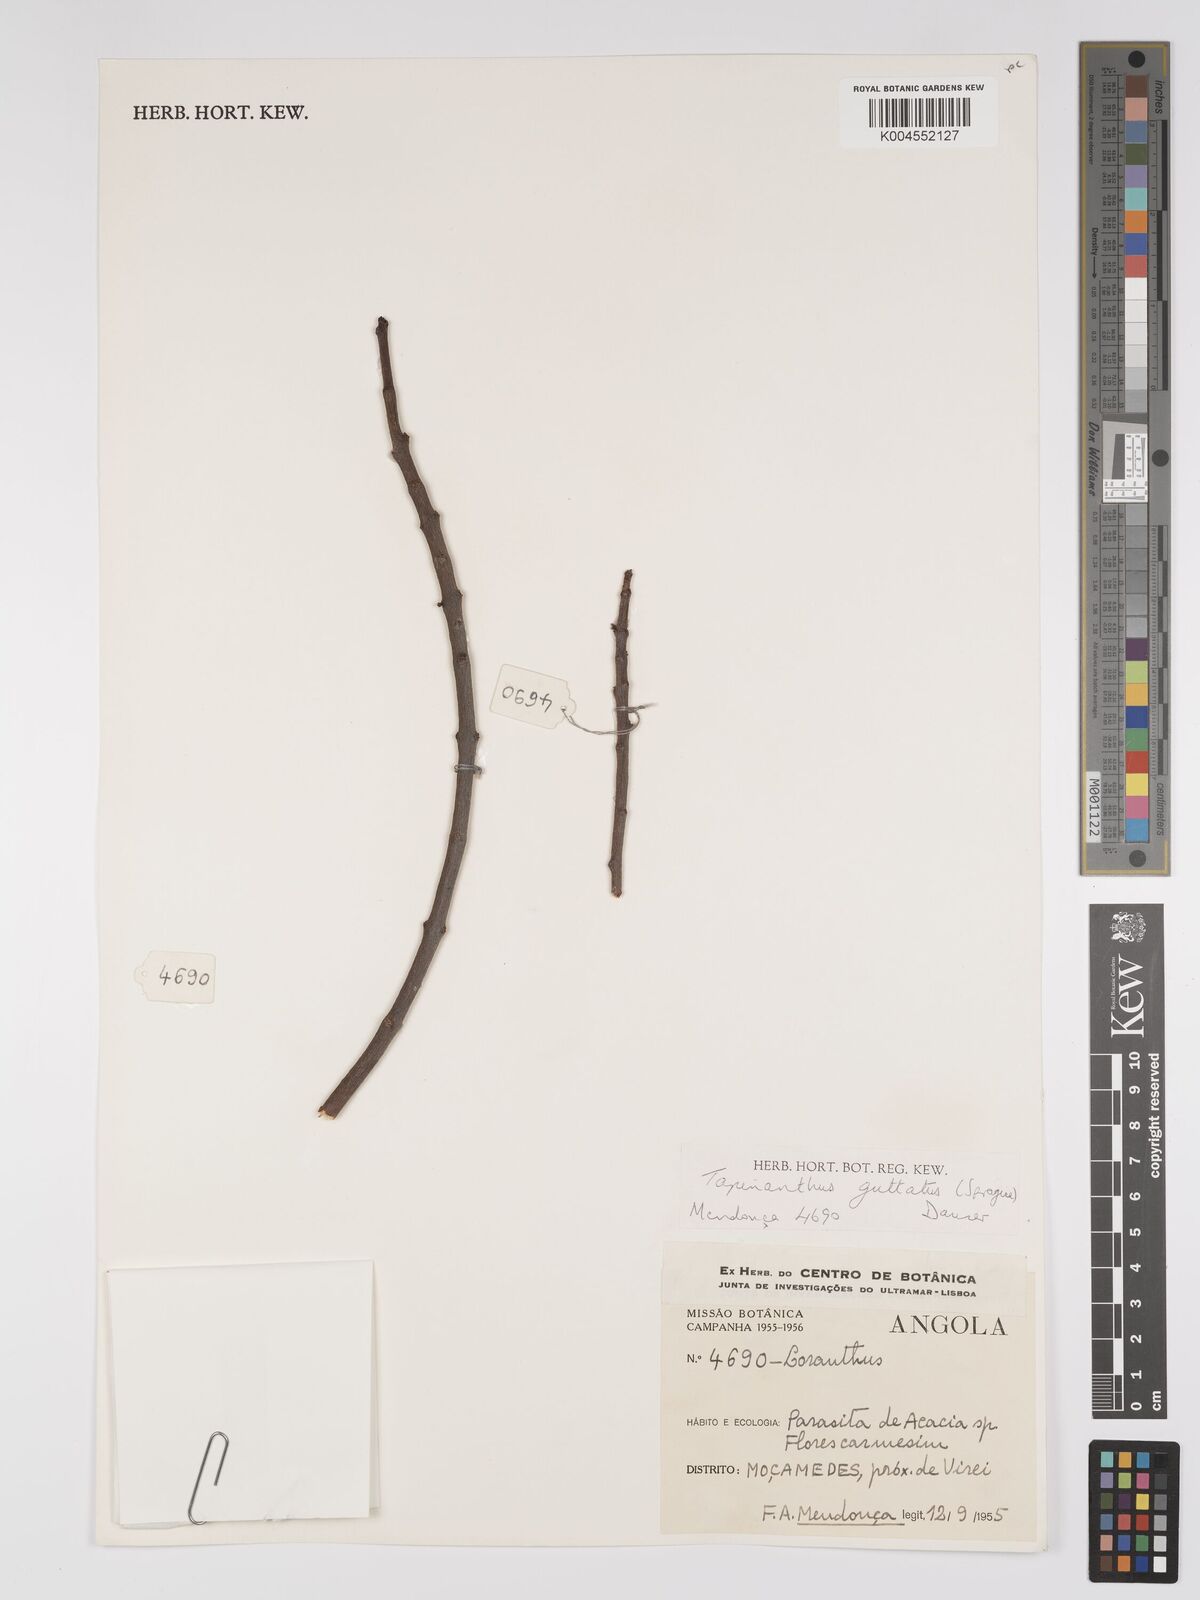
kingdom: Plantae
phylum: Tracheophyta
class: Magnoliopsida
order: Santalales
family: Loranthaceae
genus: Tapinanthus
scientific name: Tapinanthus forbesii
